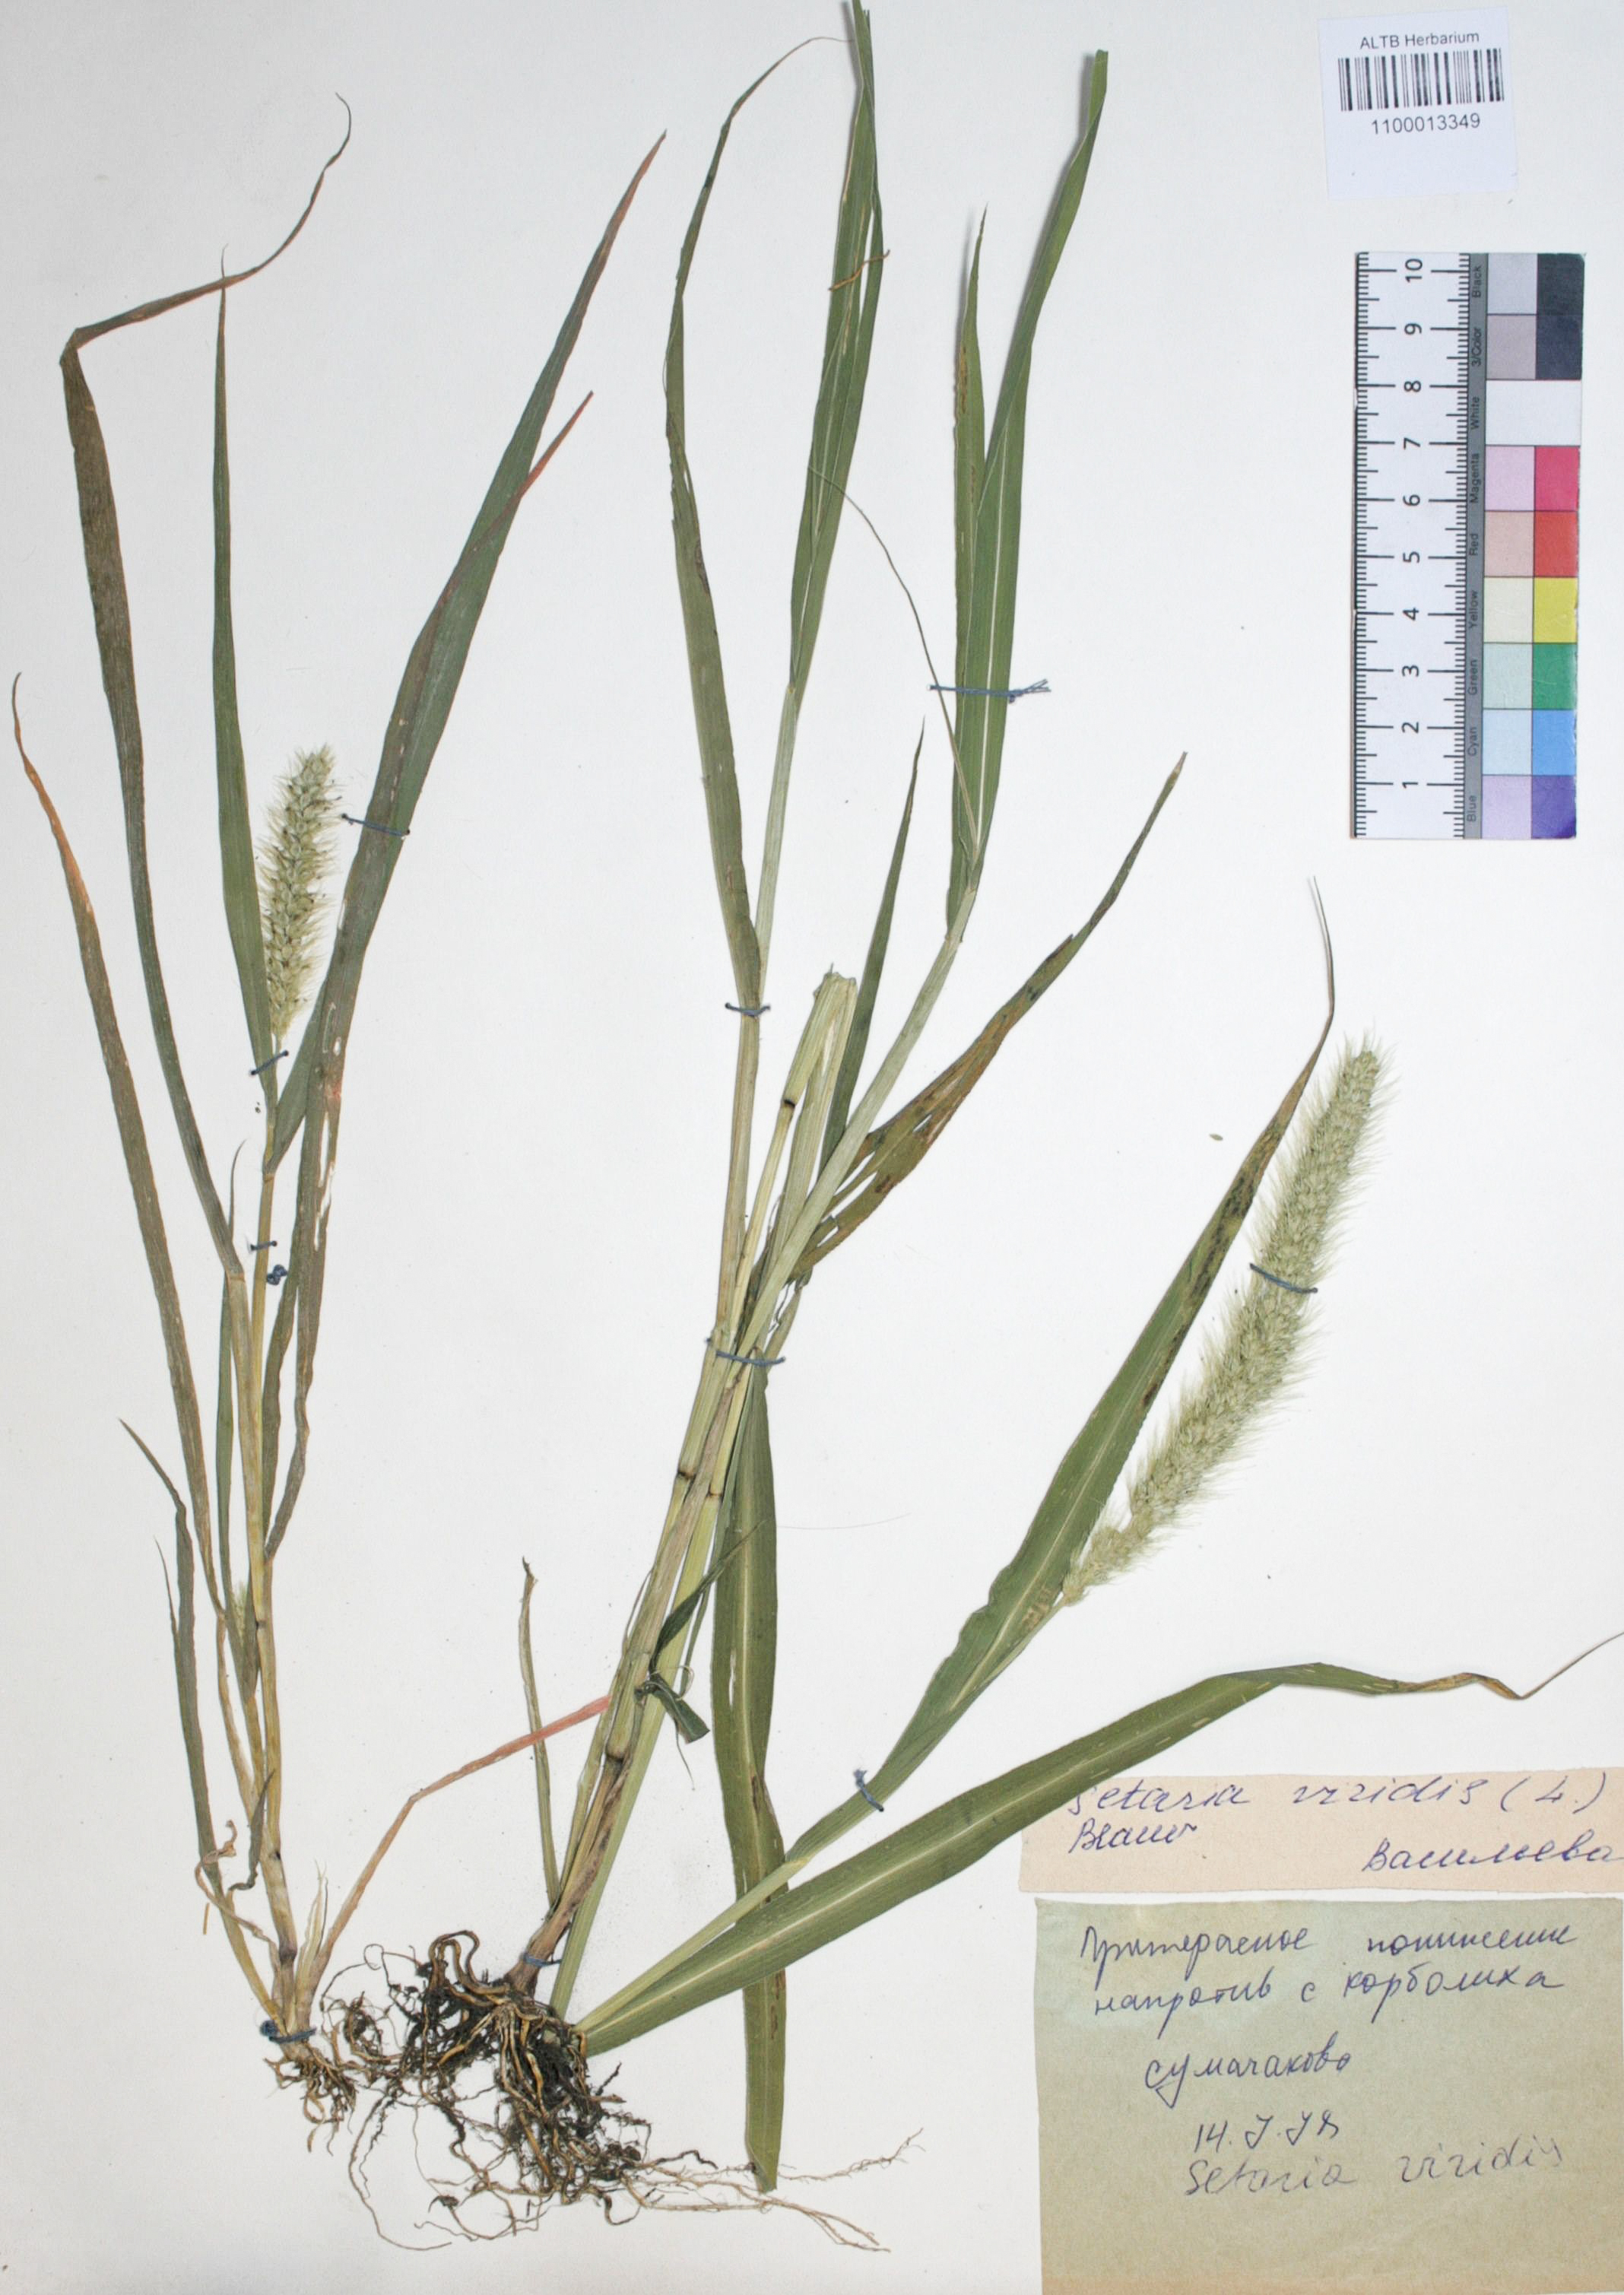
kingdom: Plantae
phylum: Tracheophyta
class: Liliopsida
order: Poales
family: Poaceae
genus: Setaria
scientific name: Setaria viridis
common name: Green bristlegrass
